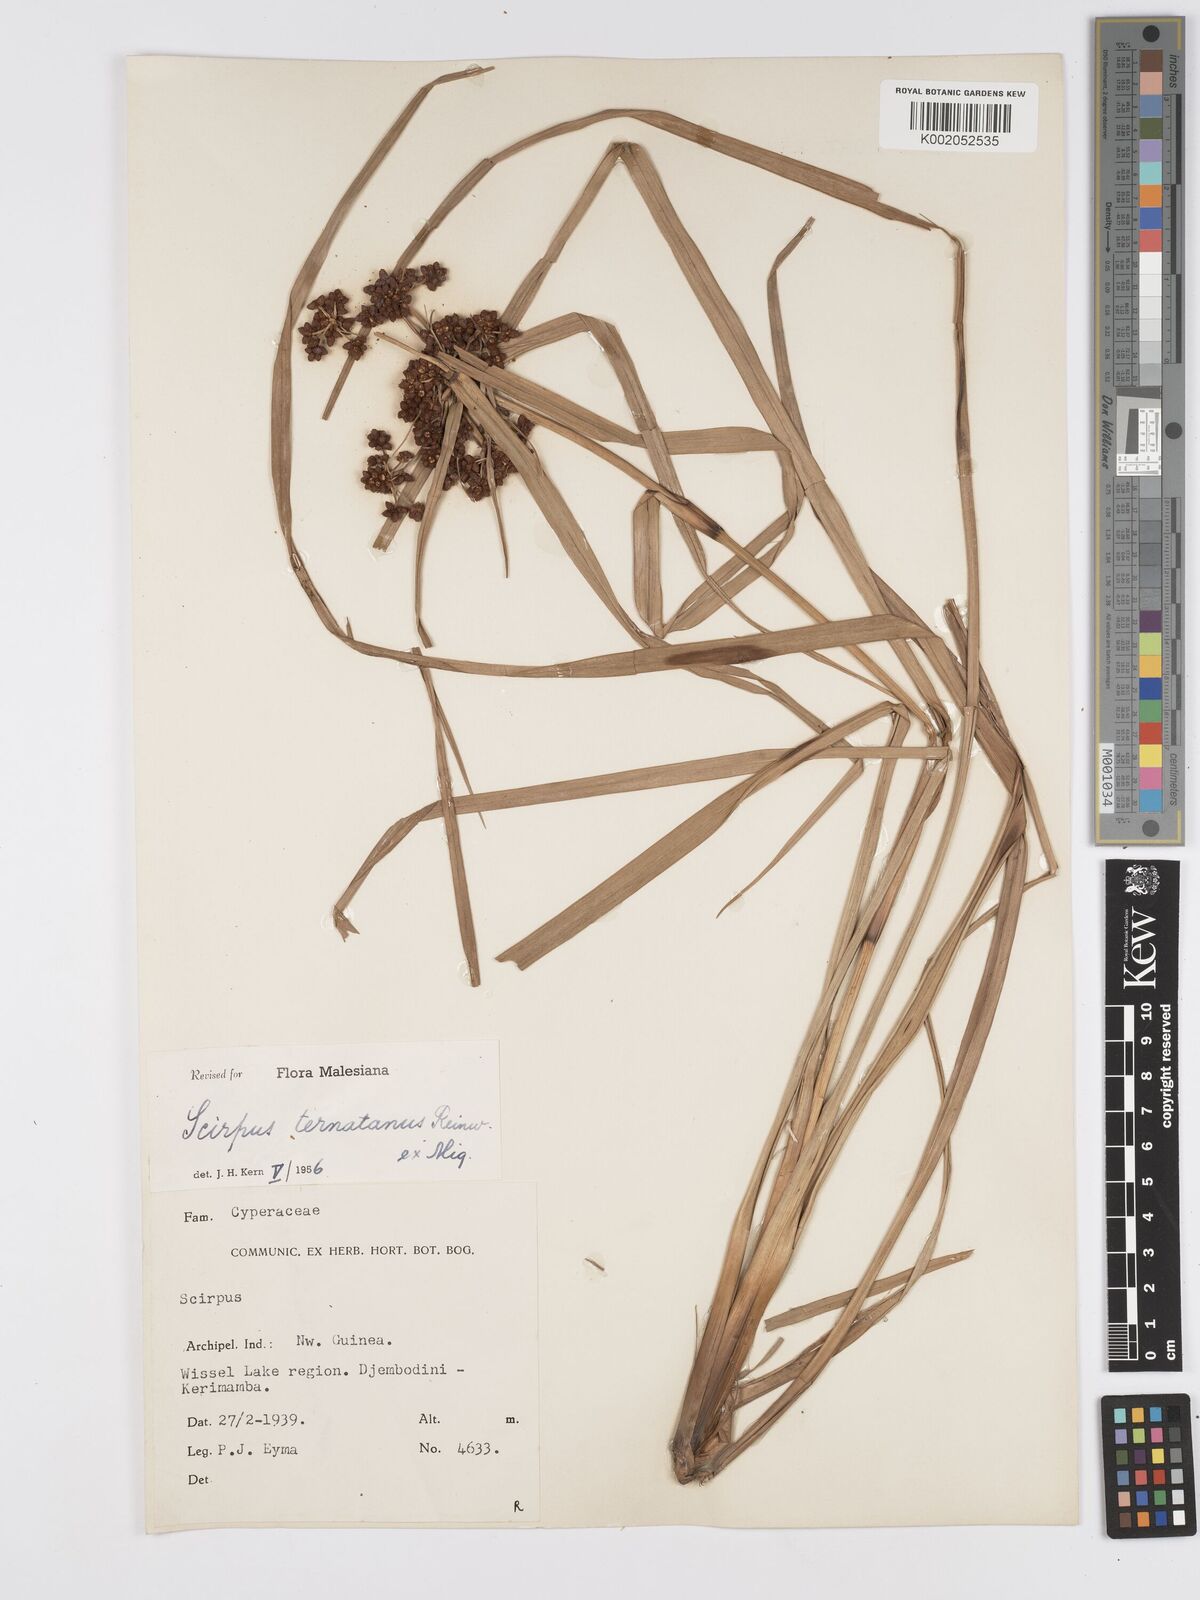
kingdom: Plantae
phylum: Tracheophyta
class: Liliopsida
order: Poales
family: Cyperaceae
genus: Scirpus
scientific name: Scirpus ternatanus
